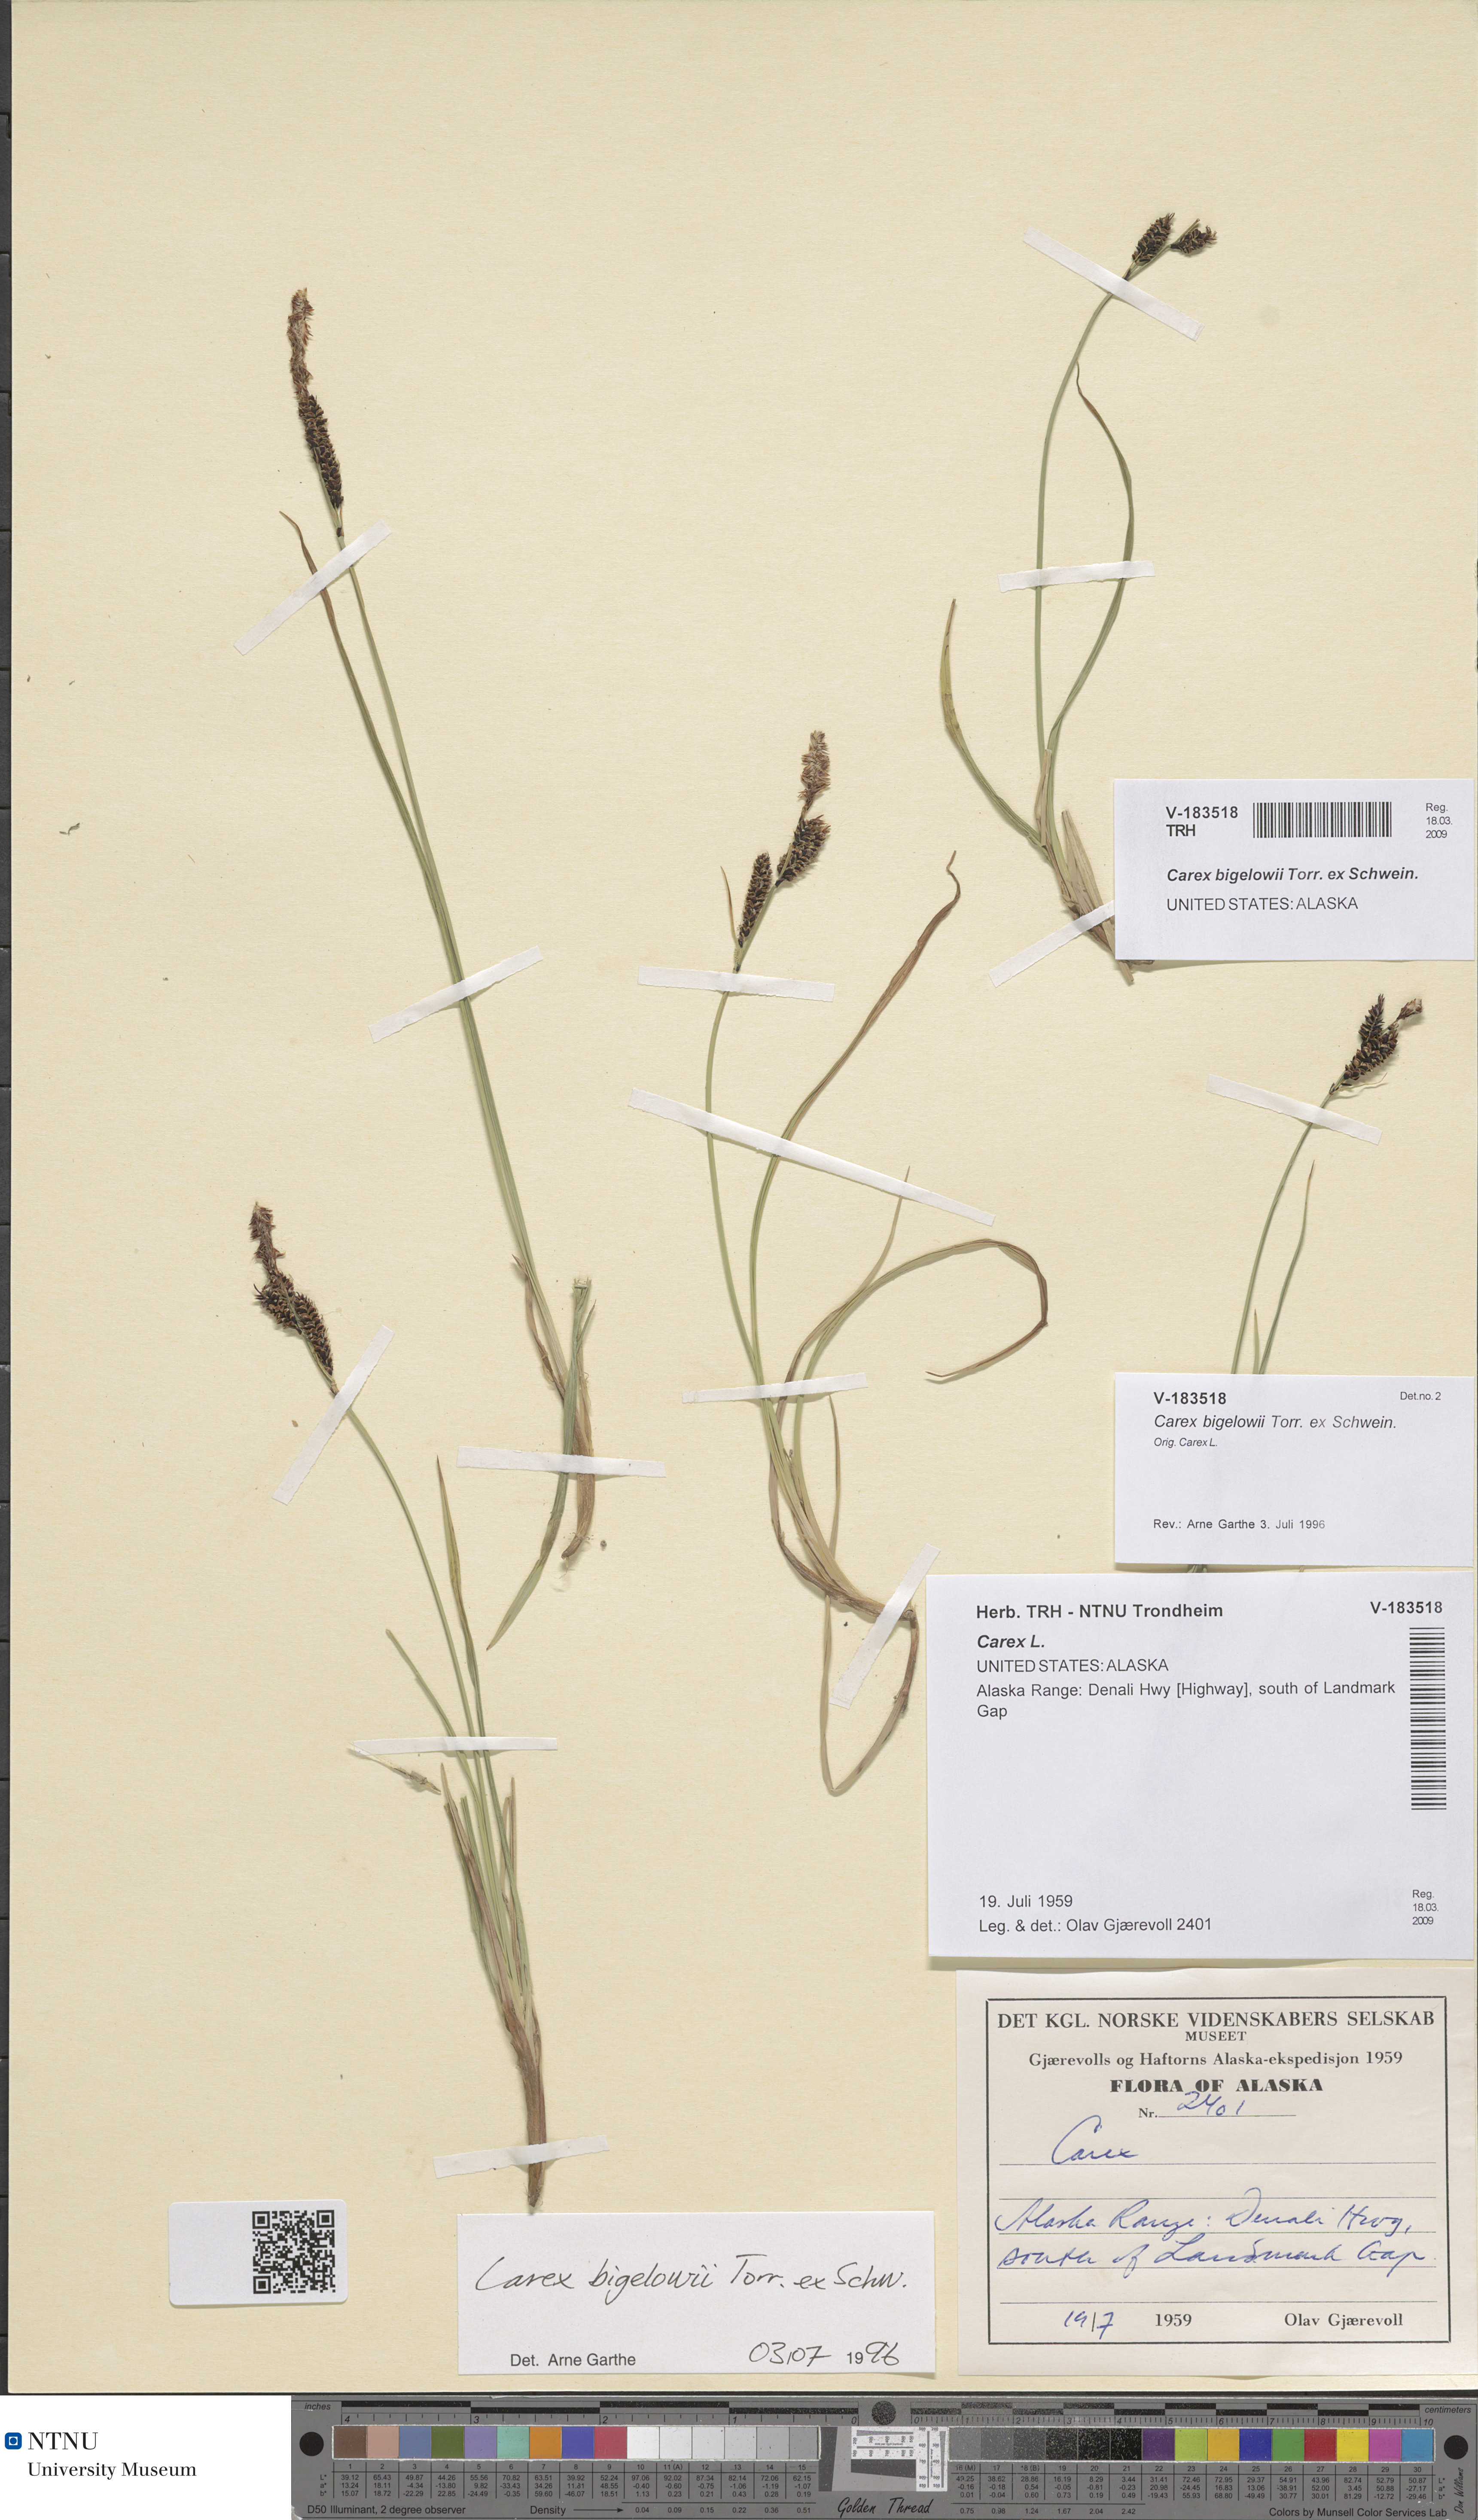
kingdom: Plantae
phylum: Tracheophyta
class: Liliopsida
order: Poales
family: Cyperaceae
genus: Carex
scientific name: Carex bigelowii
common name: Stiff sedge
